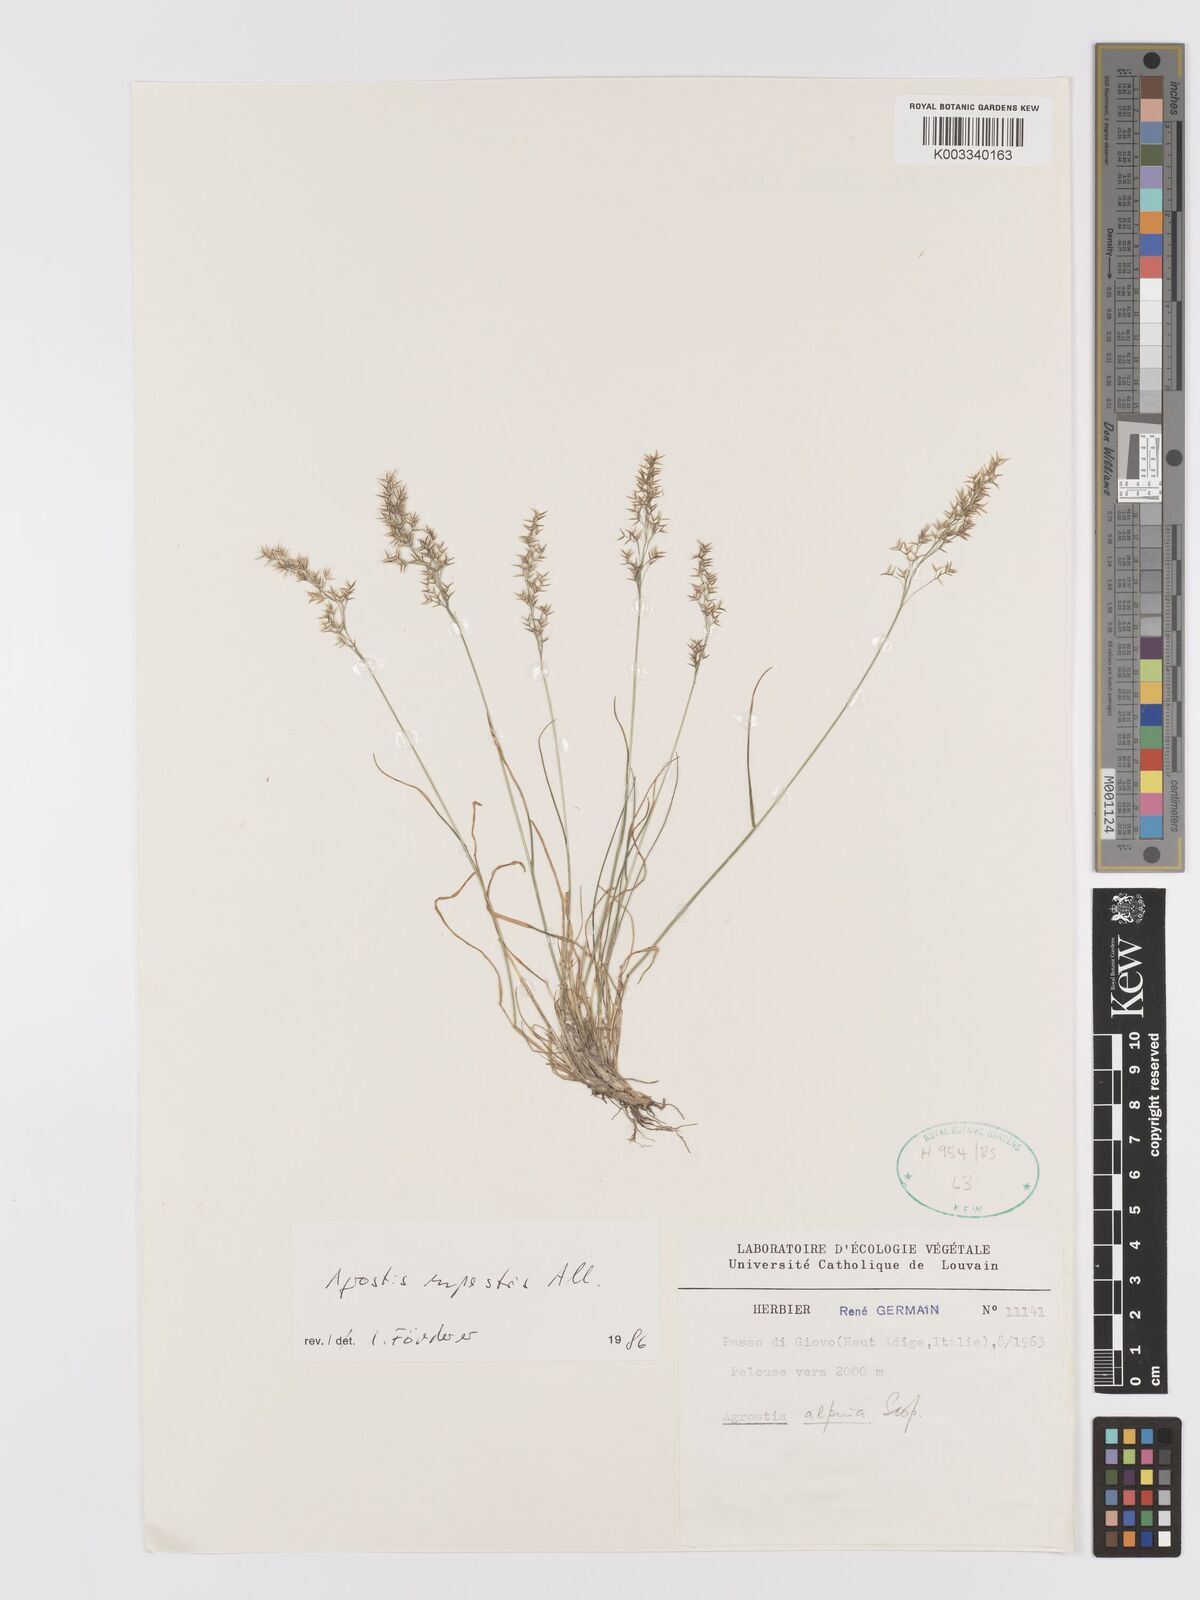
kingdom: Plantae
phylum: Tracheophyta
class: Liliopsida
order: Poales
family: Poaceae
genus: Agrostis
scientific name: Agrostis rupestris
